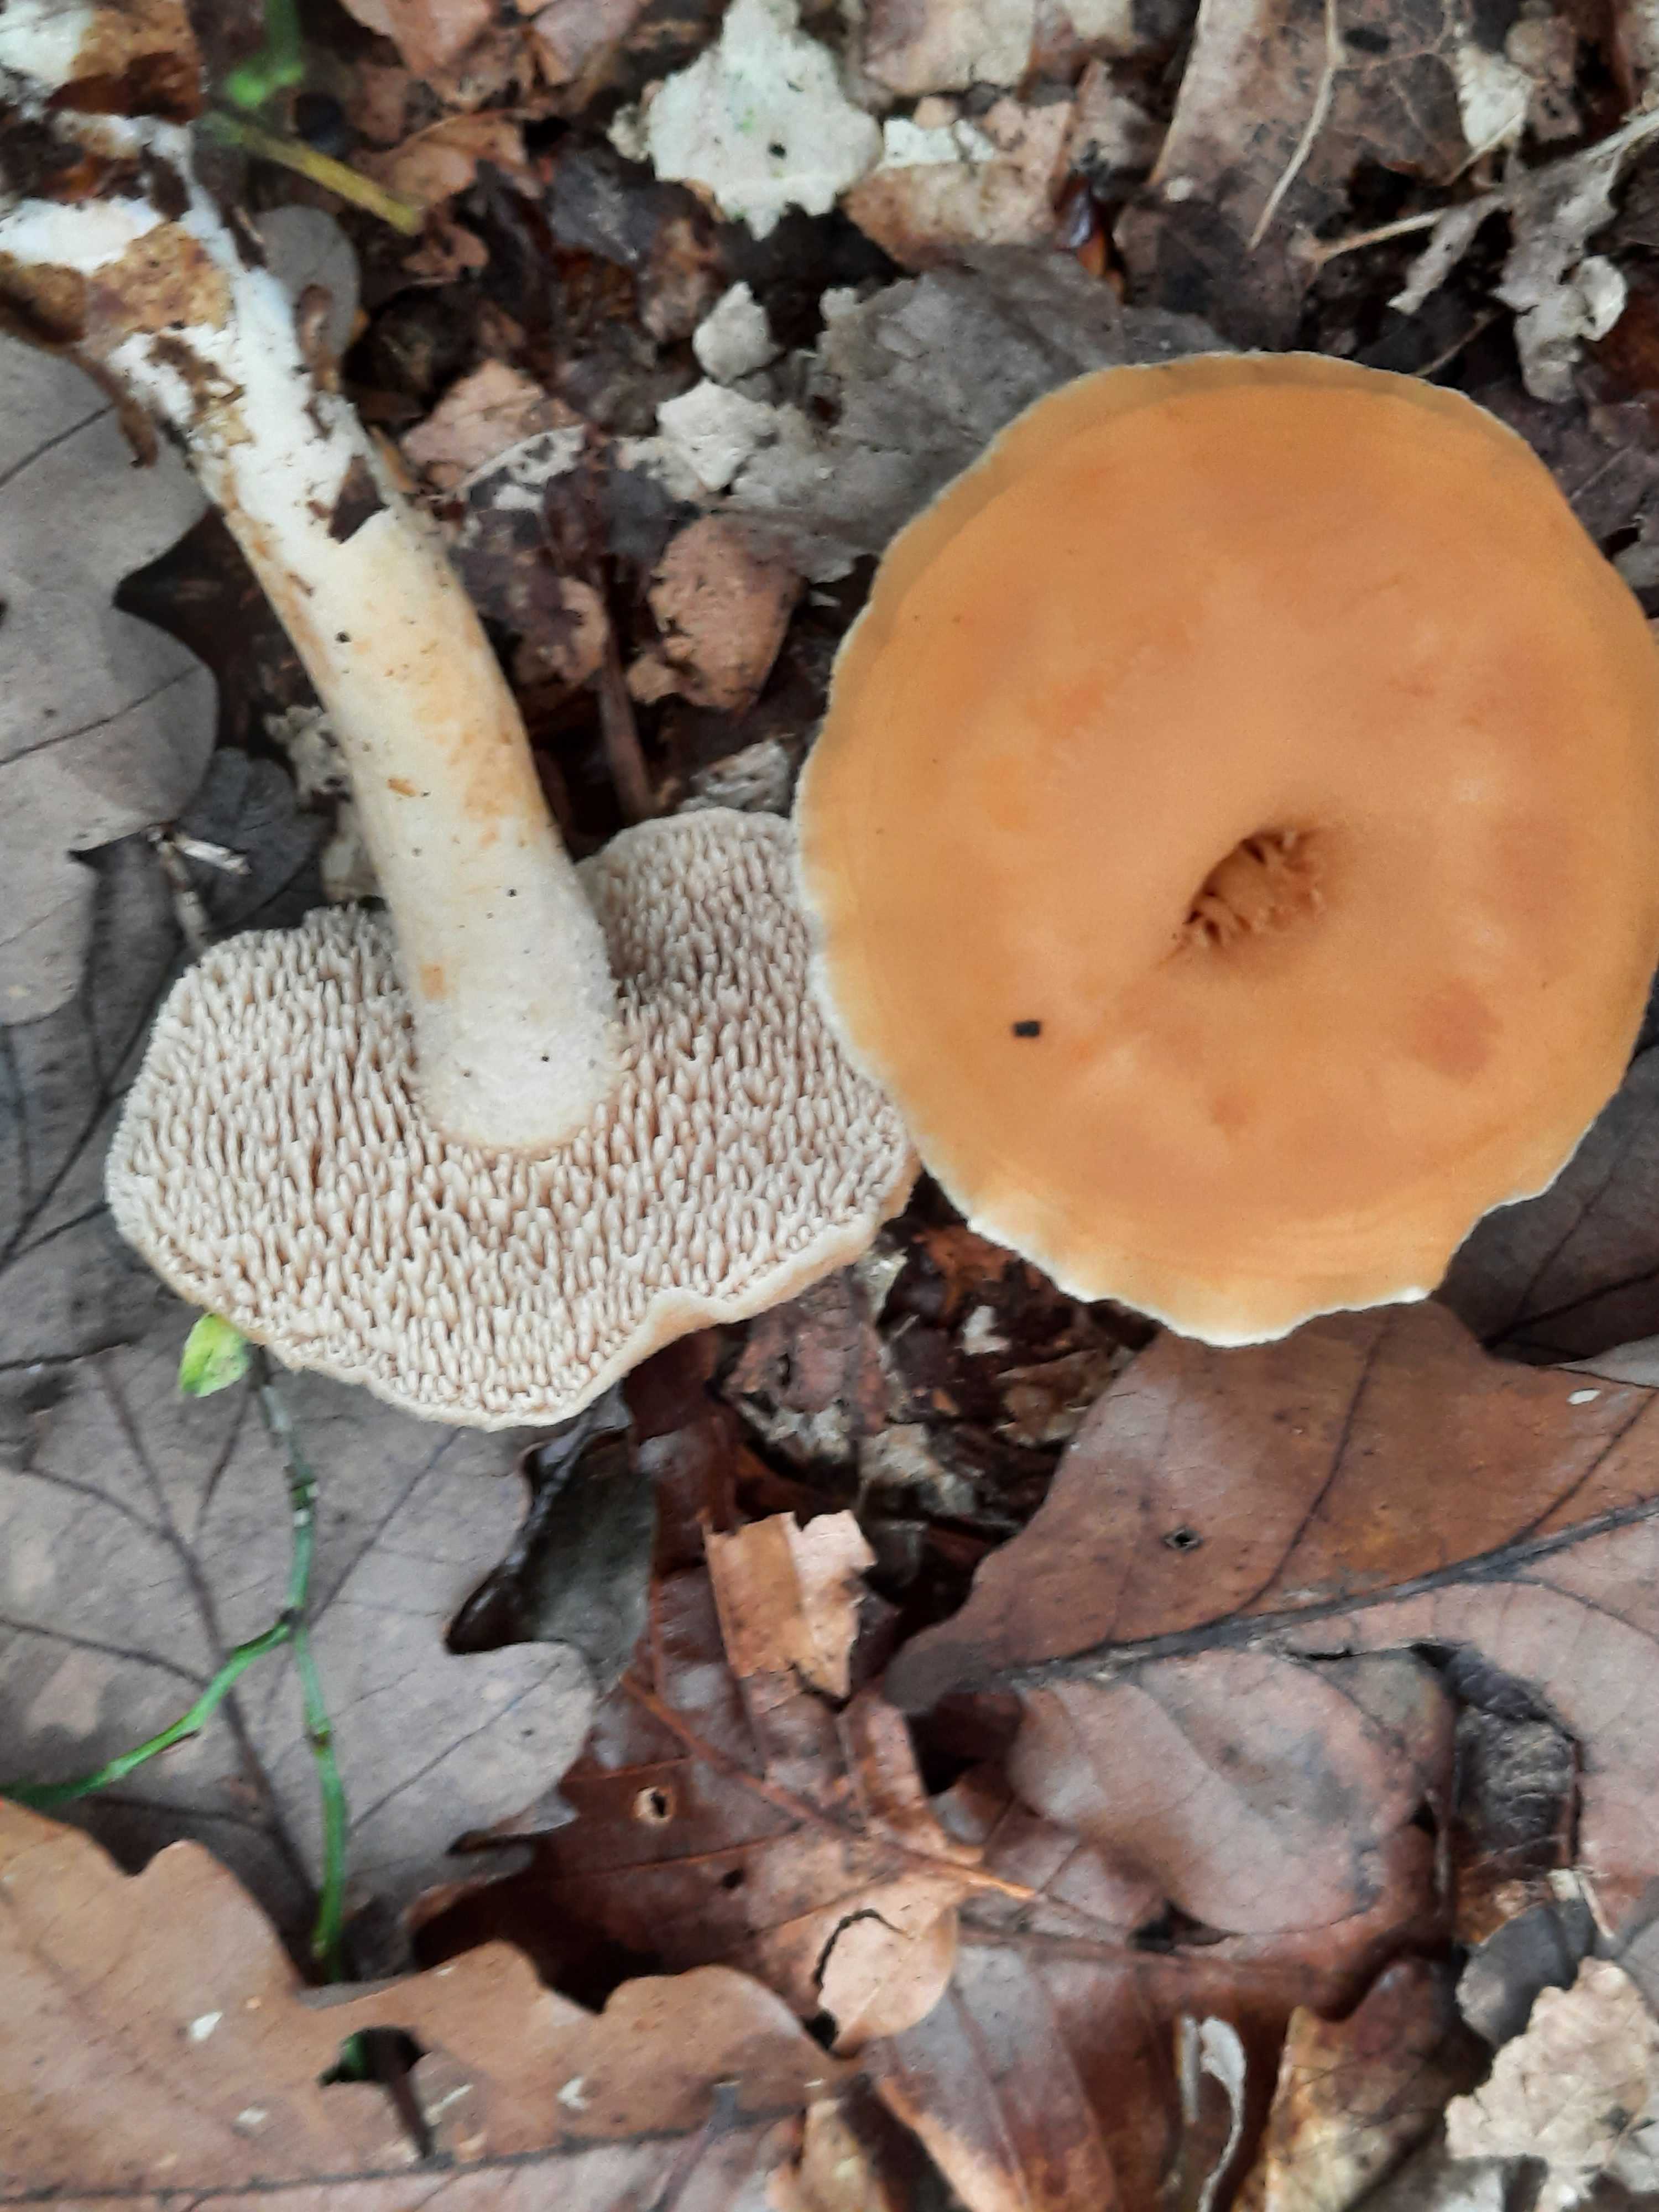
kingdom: Fungi
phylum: Basidiomycota
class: Agaricomycetes
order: Cantharellales
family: Hydnaceae
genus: Hydnum
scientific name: Hydnum umbilicatum
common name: navle-pigsvamp
